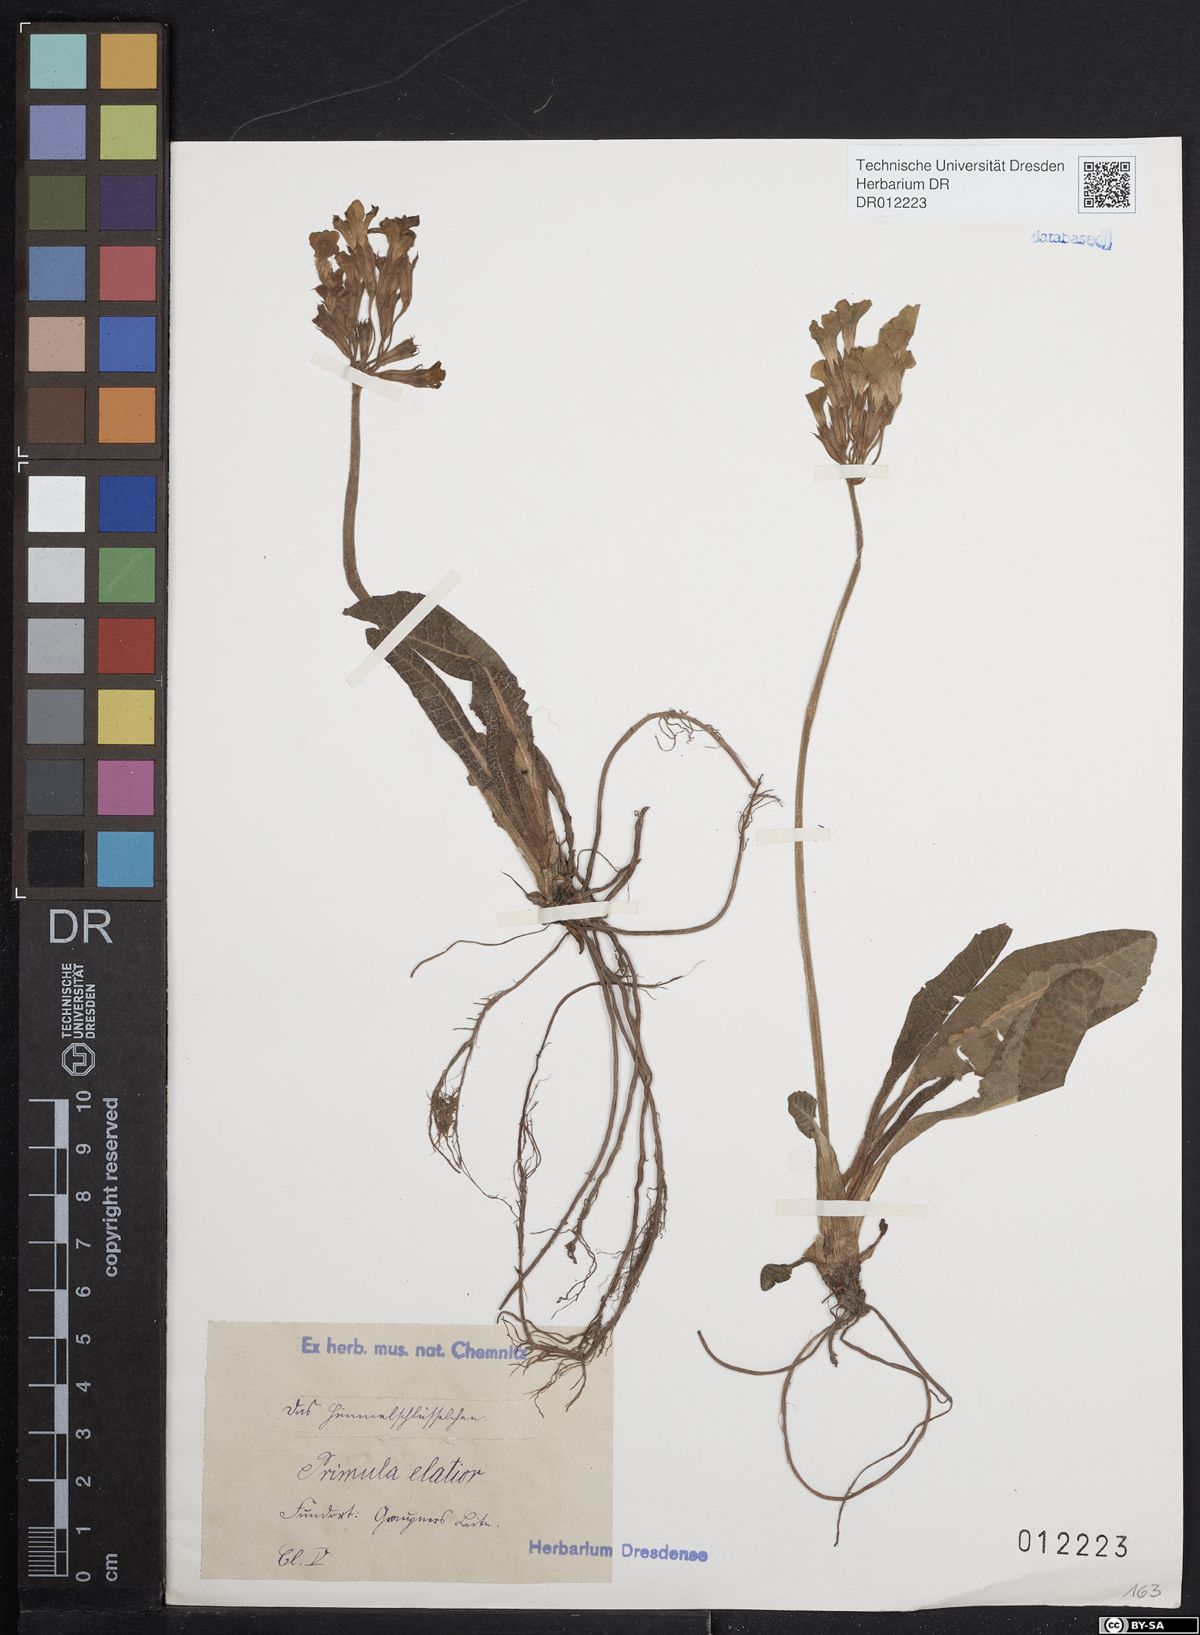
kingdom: Plantae
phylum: Tracheophyta
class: Magnoliopsida
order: Ericales
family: Primulaceae
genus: Primula
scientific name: Primula elatior
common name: Oxlip
